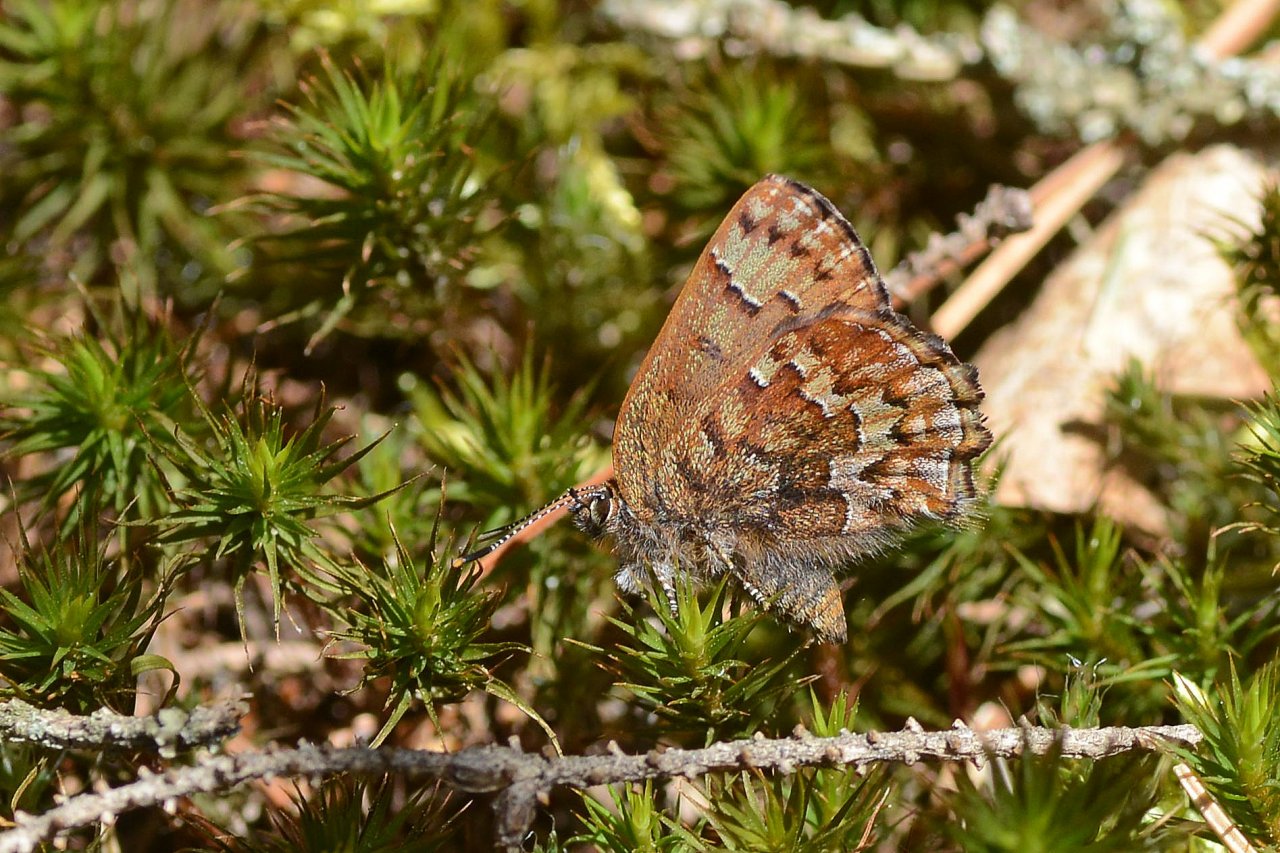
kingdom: Animalia
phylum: Arthropoda
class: Insecta
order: Lepidoptera
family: Lycaenidae
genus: Incisalia
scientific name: Incisalia niphon
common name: Eastern Pine Elfin
